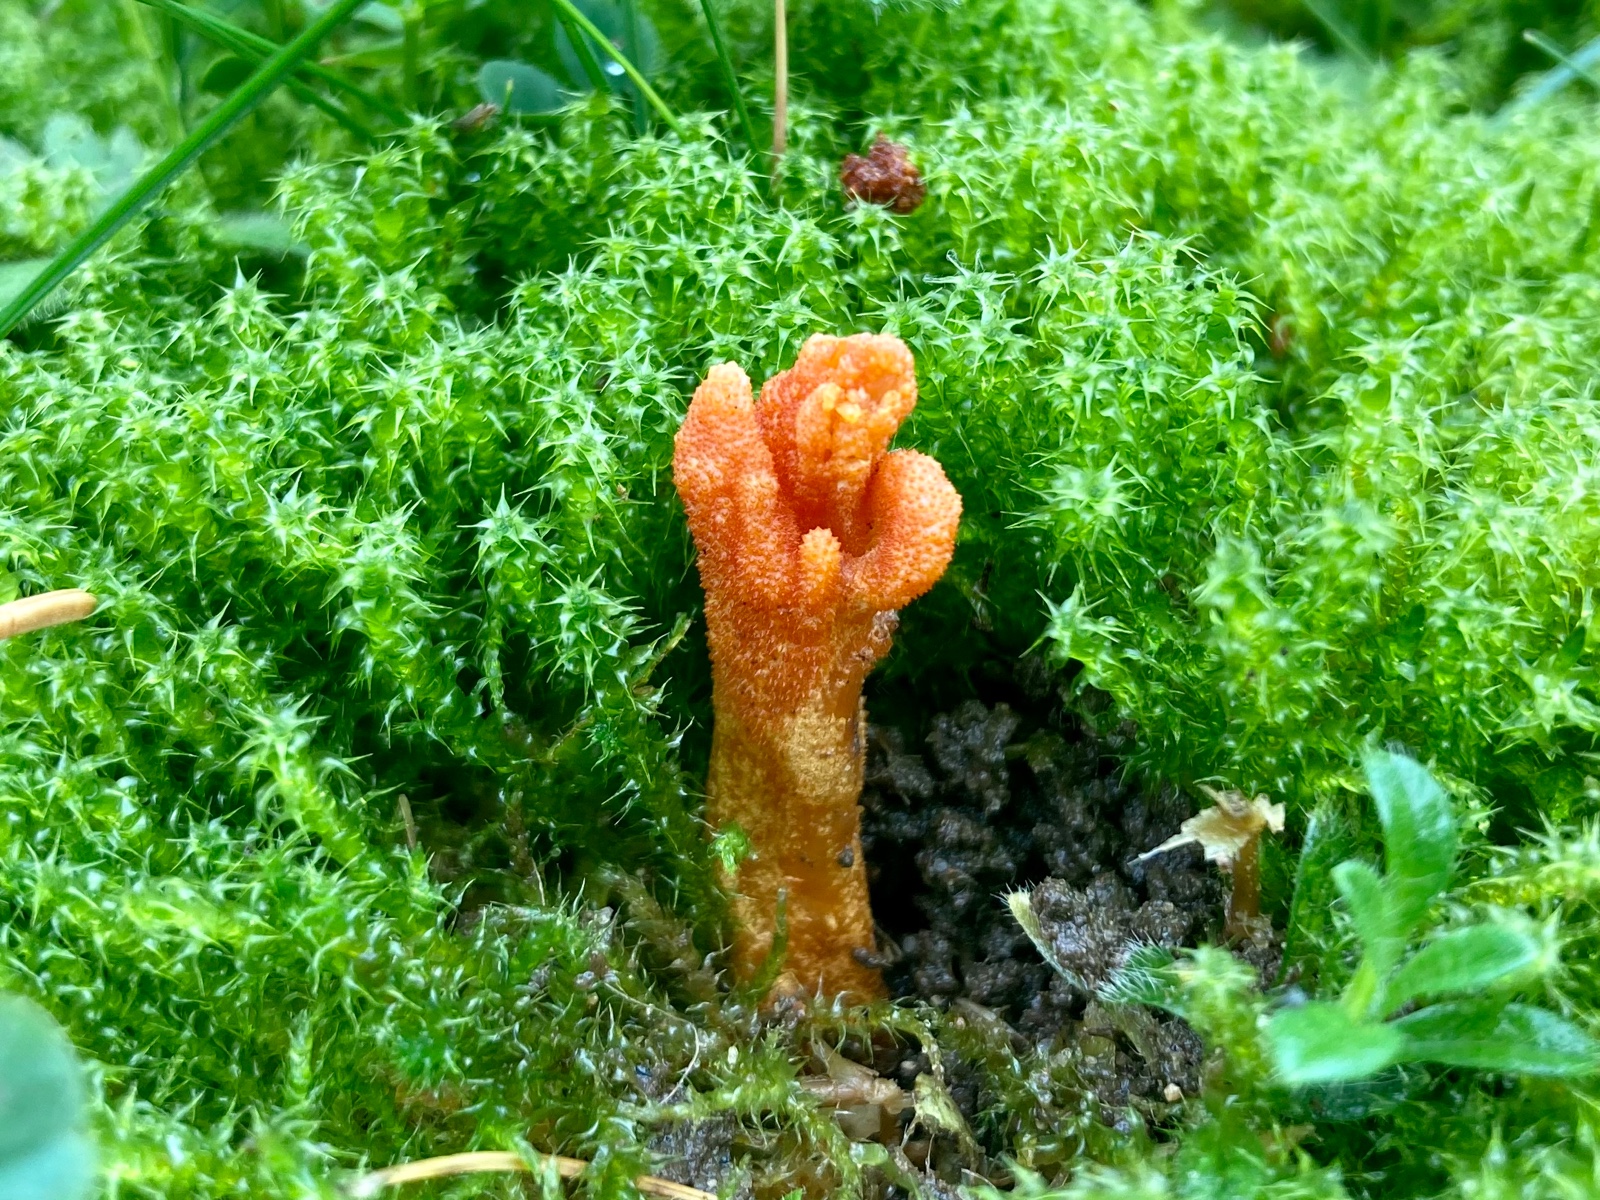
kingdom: Fungi
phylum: Ascomycota
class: Sordariomycetes
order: Hypocreales
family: Cordycipitaceae
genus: Cordyceps
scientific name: Cordyceps militaris
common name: puppe-snyltekølle
